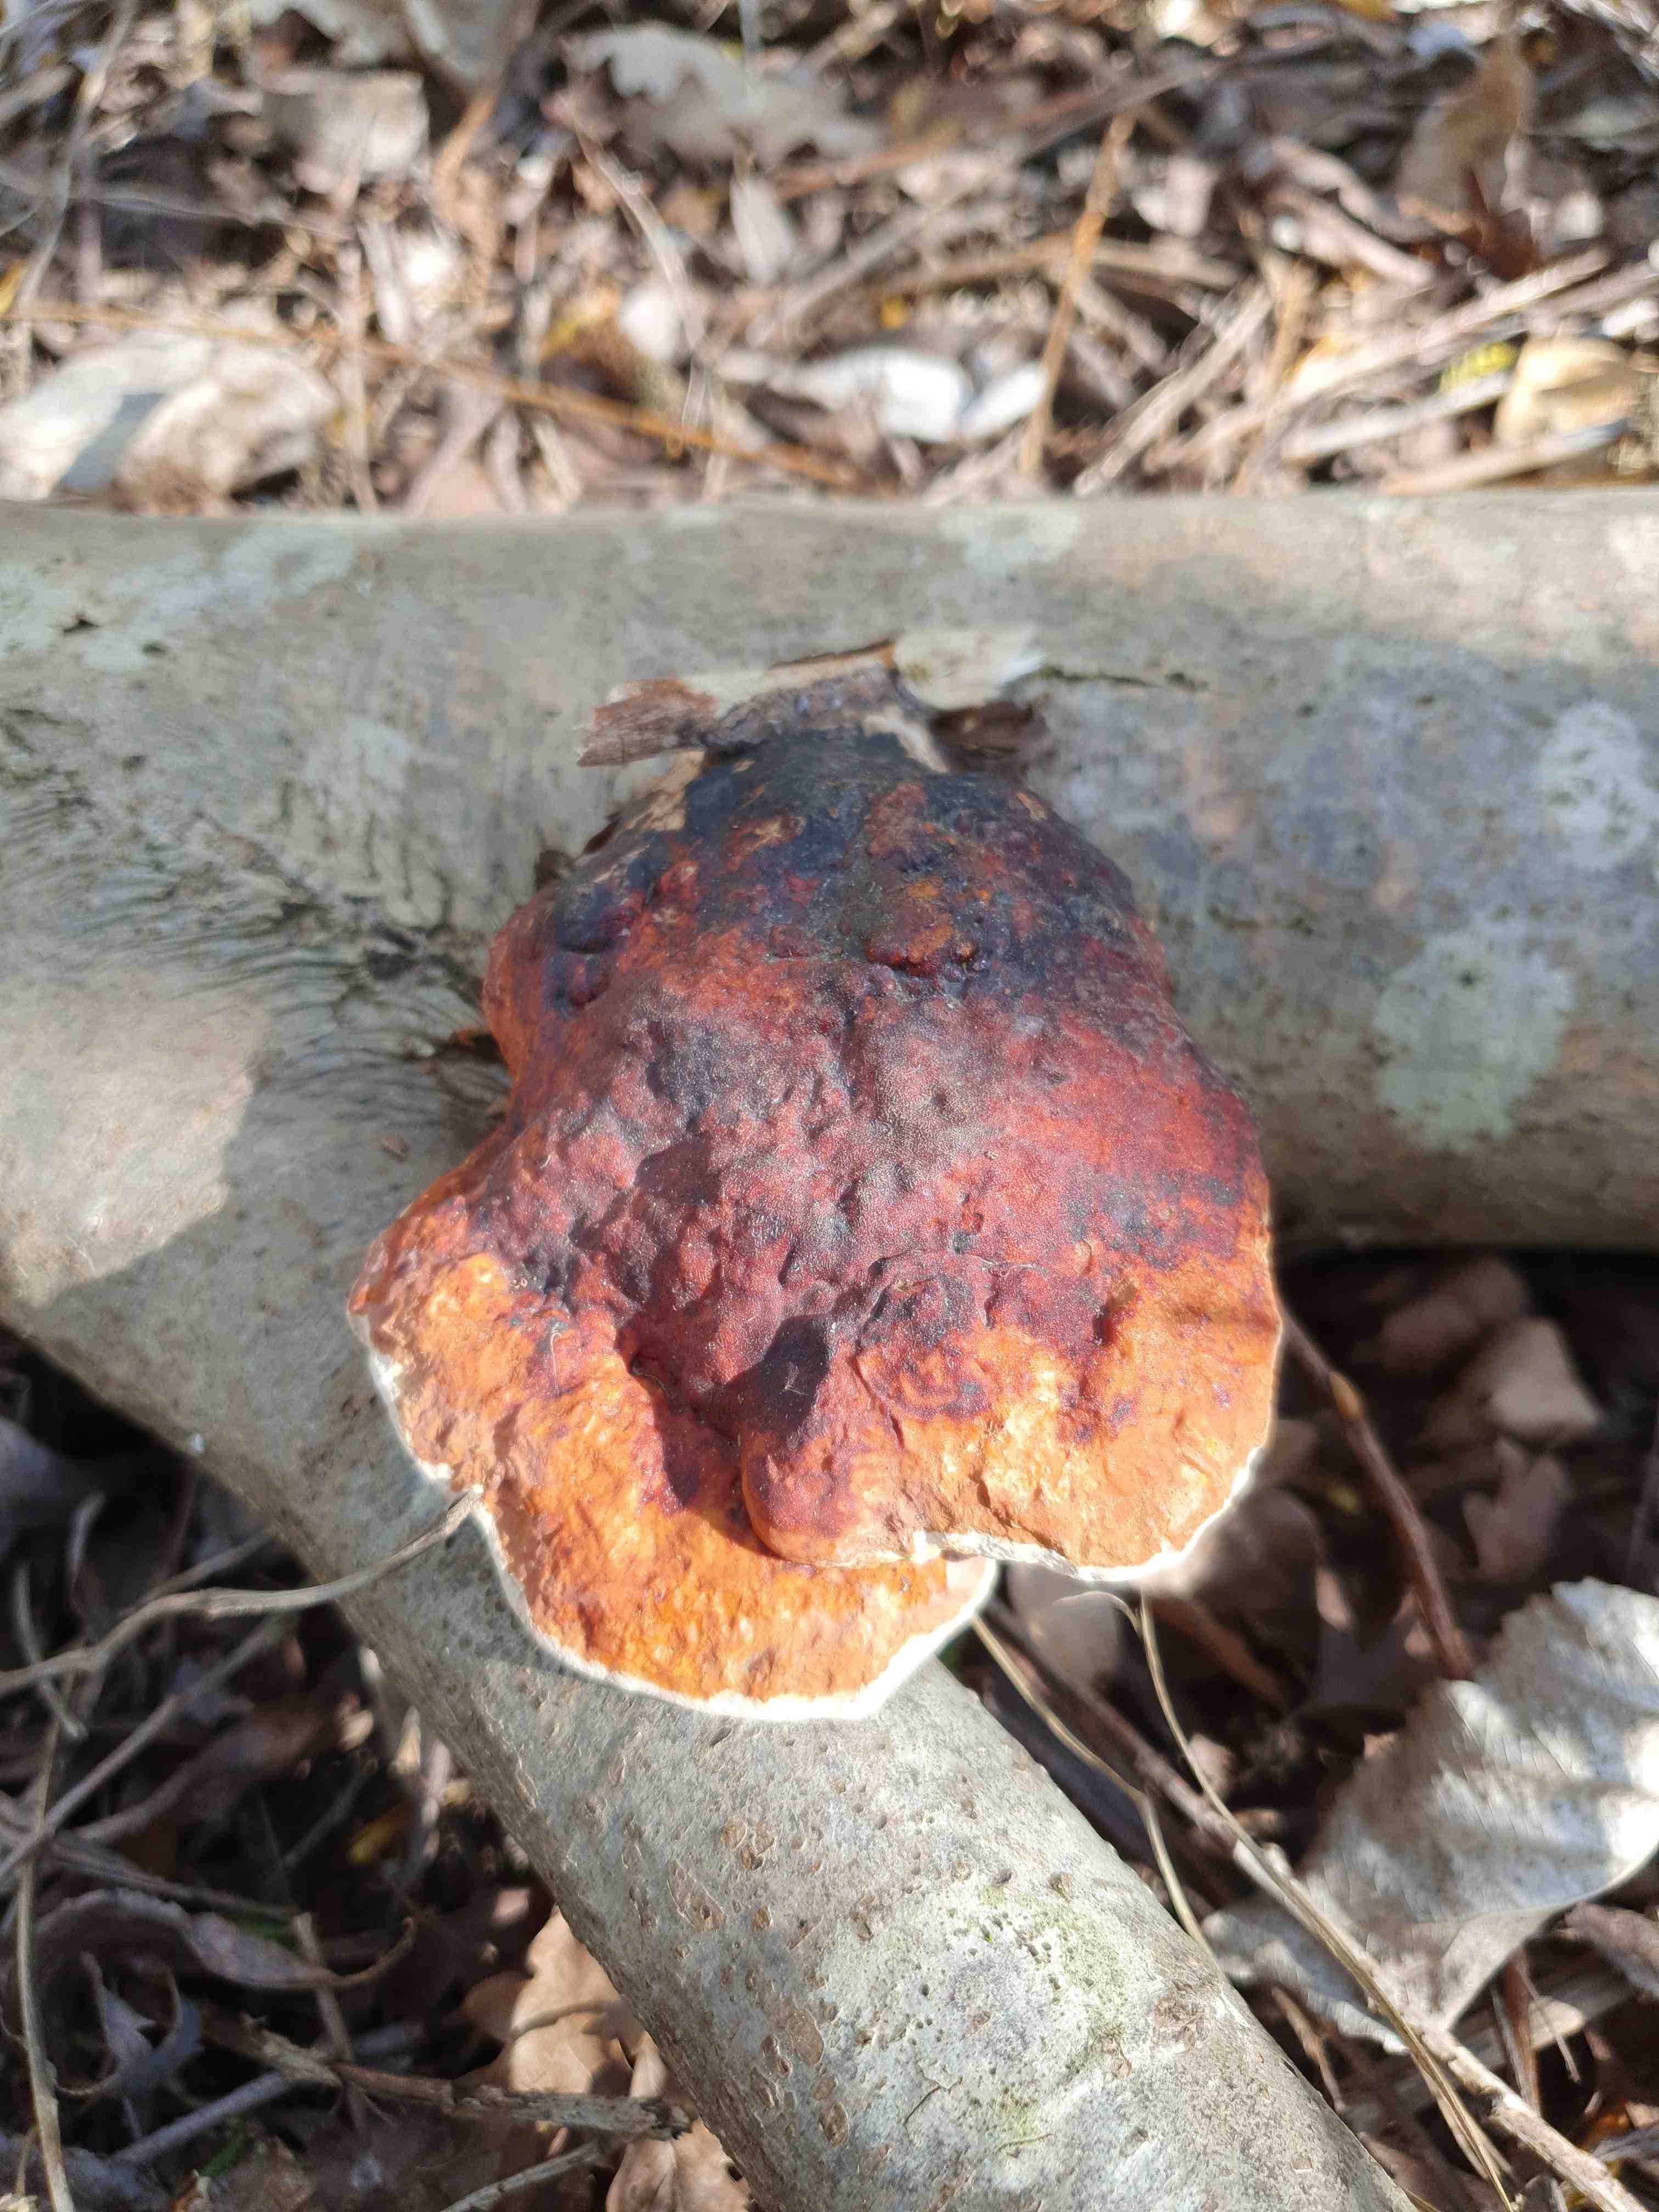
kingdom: Fungi
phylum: Basidiomycota
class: Agaricomycetes
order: Polyporales
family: Fomitopsidaceae
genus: Fomitopsis
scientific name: Fomitopsis pinicola
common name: randbæltet hovporesvamp
